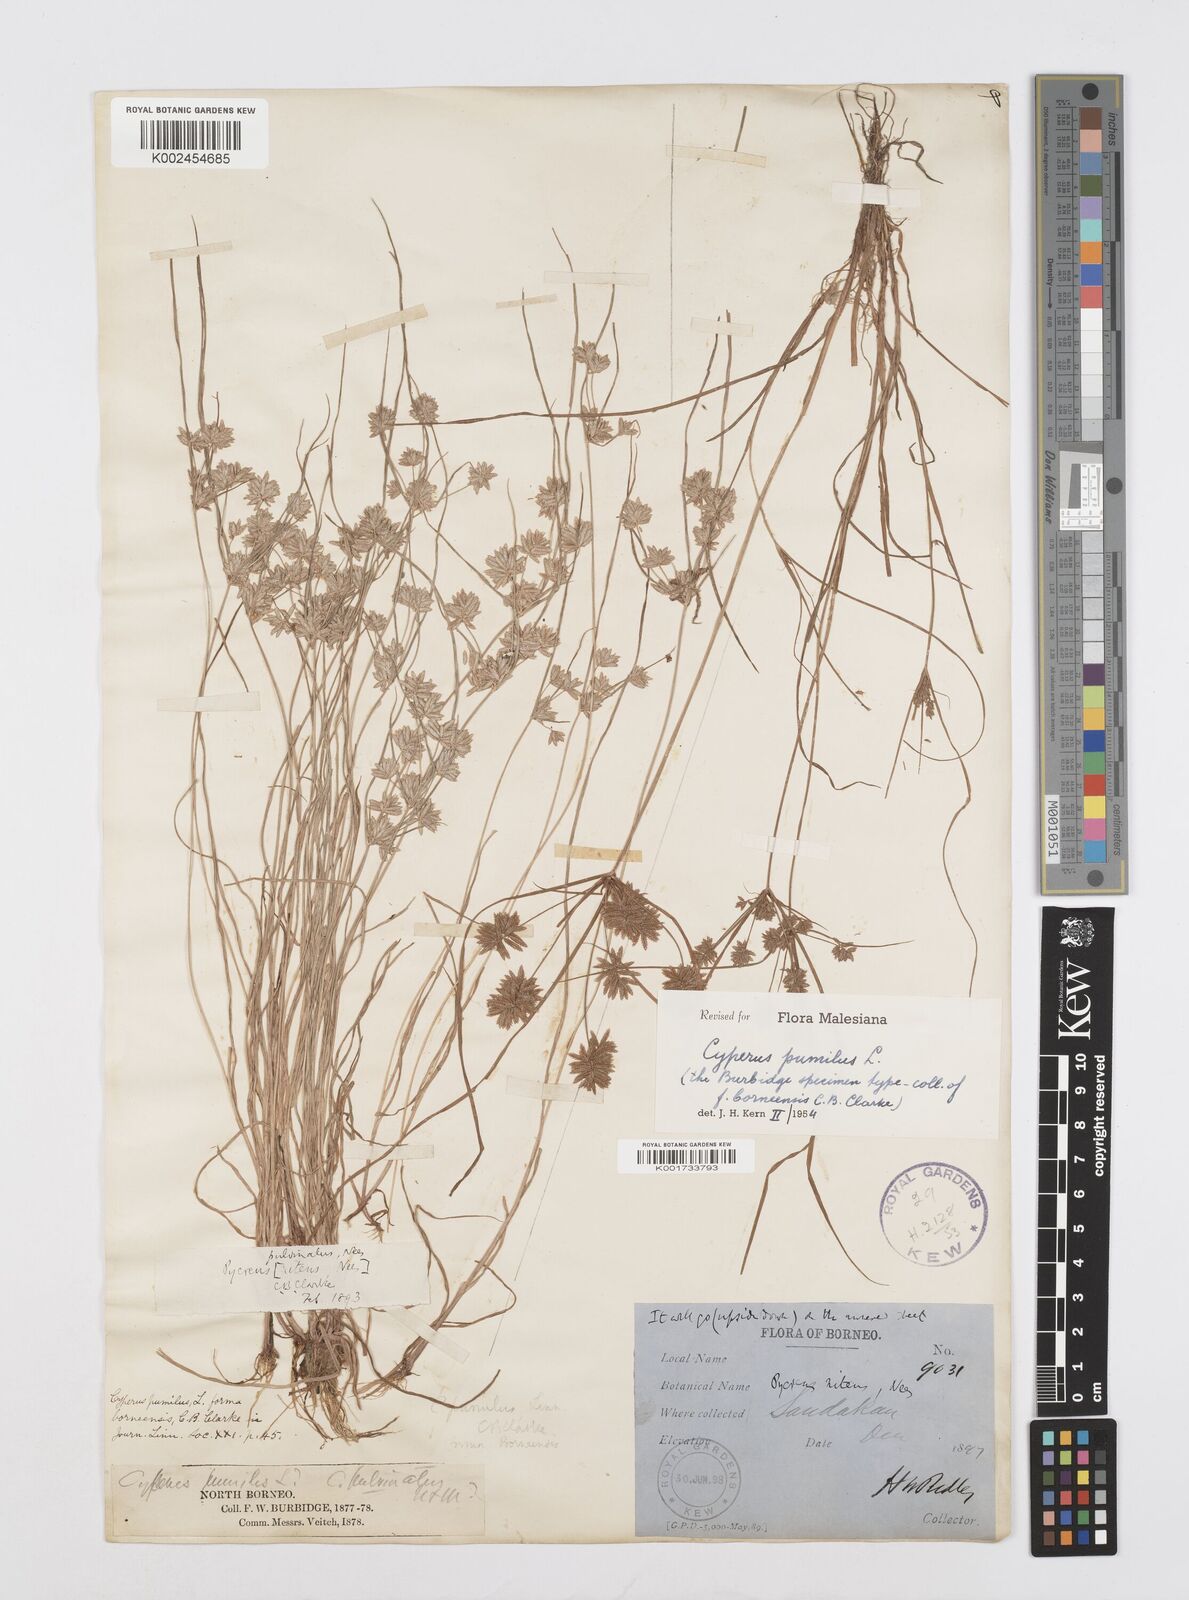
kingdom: Plantae
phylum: Tracheophyta
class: Liliopsida
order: Poales
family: Cyperaceae
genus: Cyperus
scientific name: Cyperus pumilus
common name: Low flatsedge
